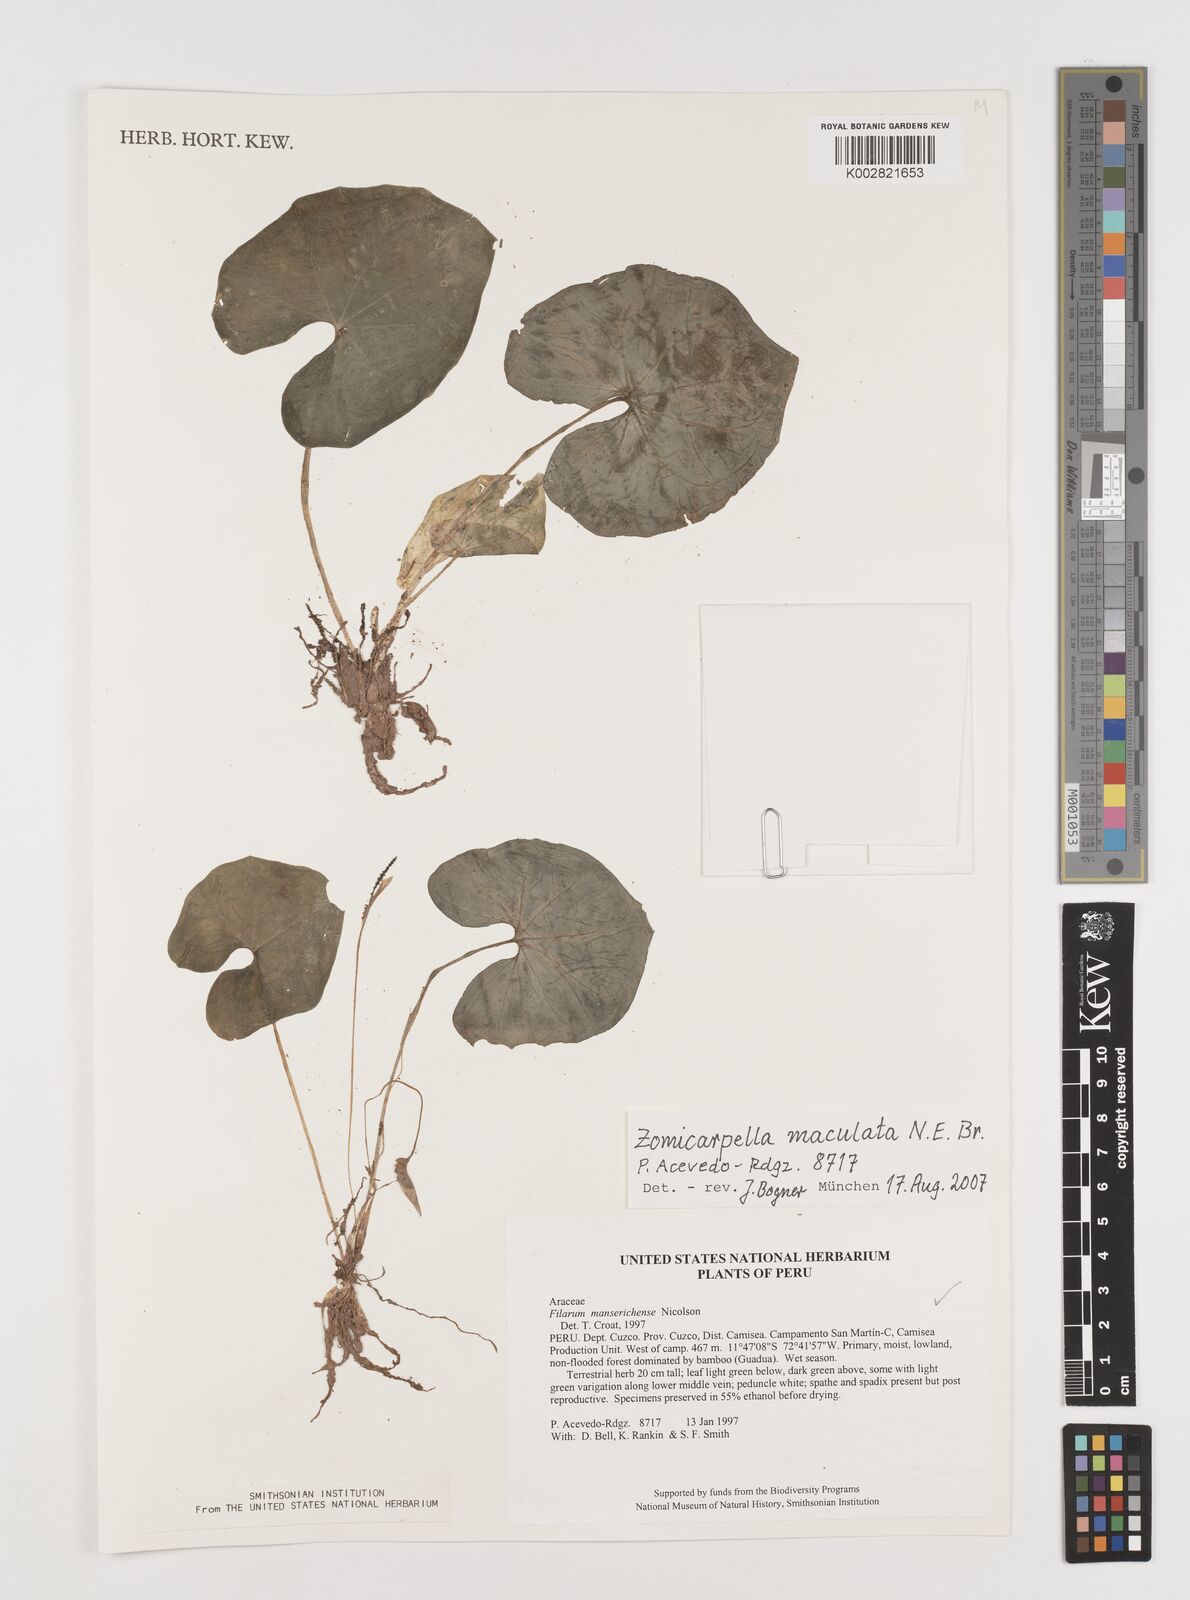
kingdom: Plantae
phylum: Tracheophyta
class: Liliopsida
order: Alismatales
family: Araceae
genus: Zomicarpella
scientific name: Zomicarpella maculata
